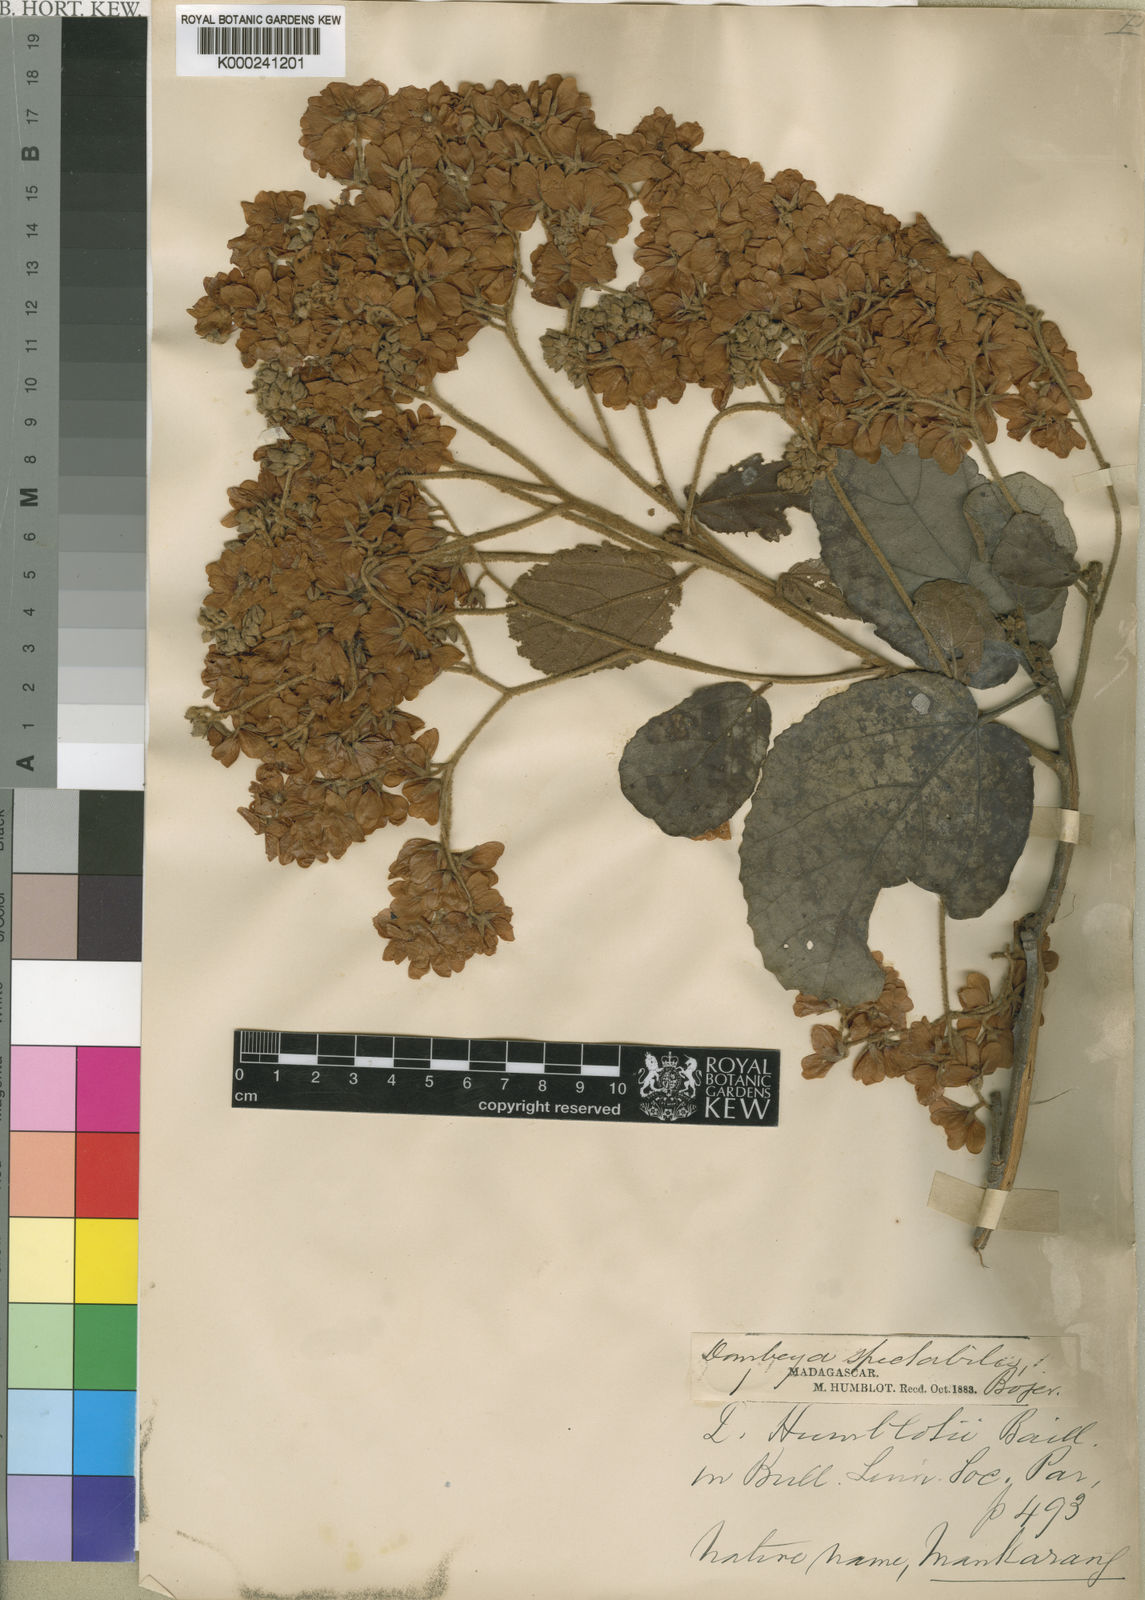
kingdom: Plantae
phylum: Tracheophyta
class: Magnoliopsida
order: Malvales
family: Malvaceae
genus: Dombeya
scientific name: Dombeya
